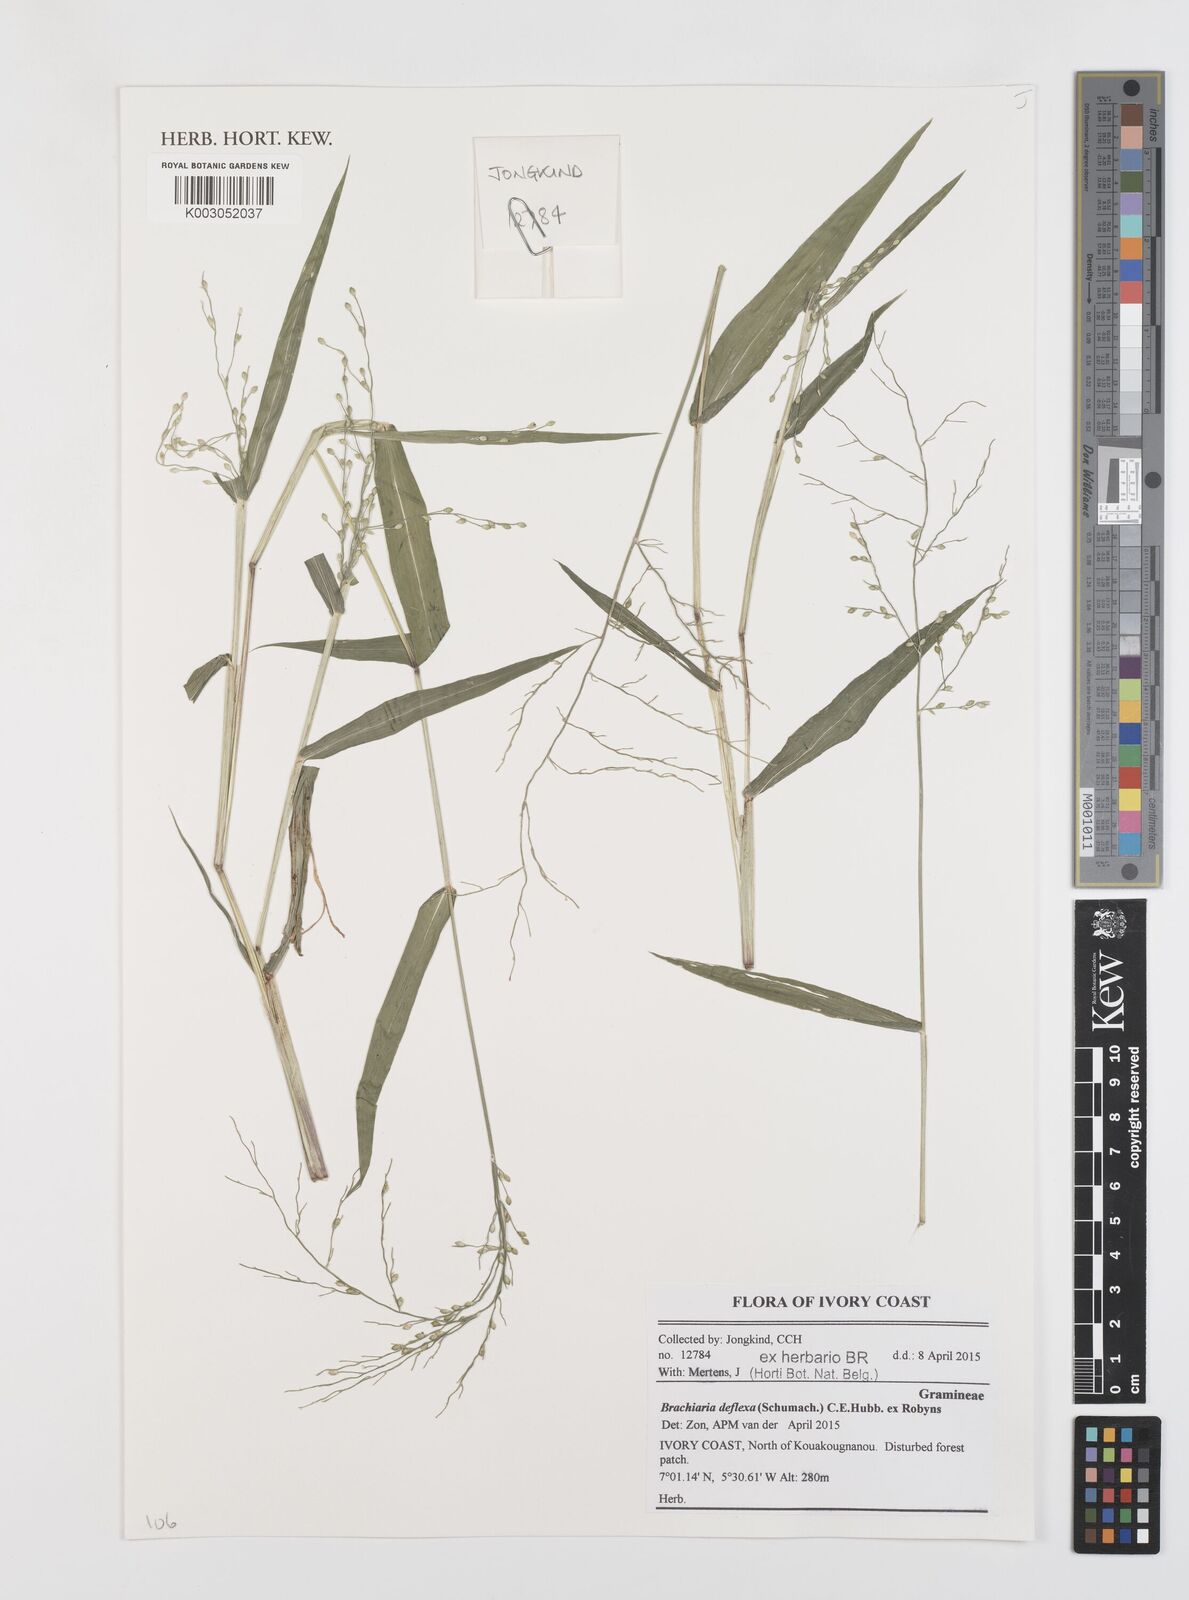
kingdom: Plantae
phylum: Tracheophyta
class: Liliopsida
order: Poales
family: Poaceae
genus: Urochloa
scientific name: Urochloa deflexa
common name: Guinea millet
